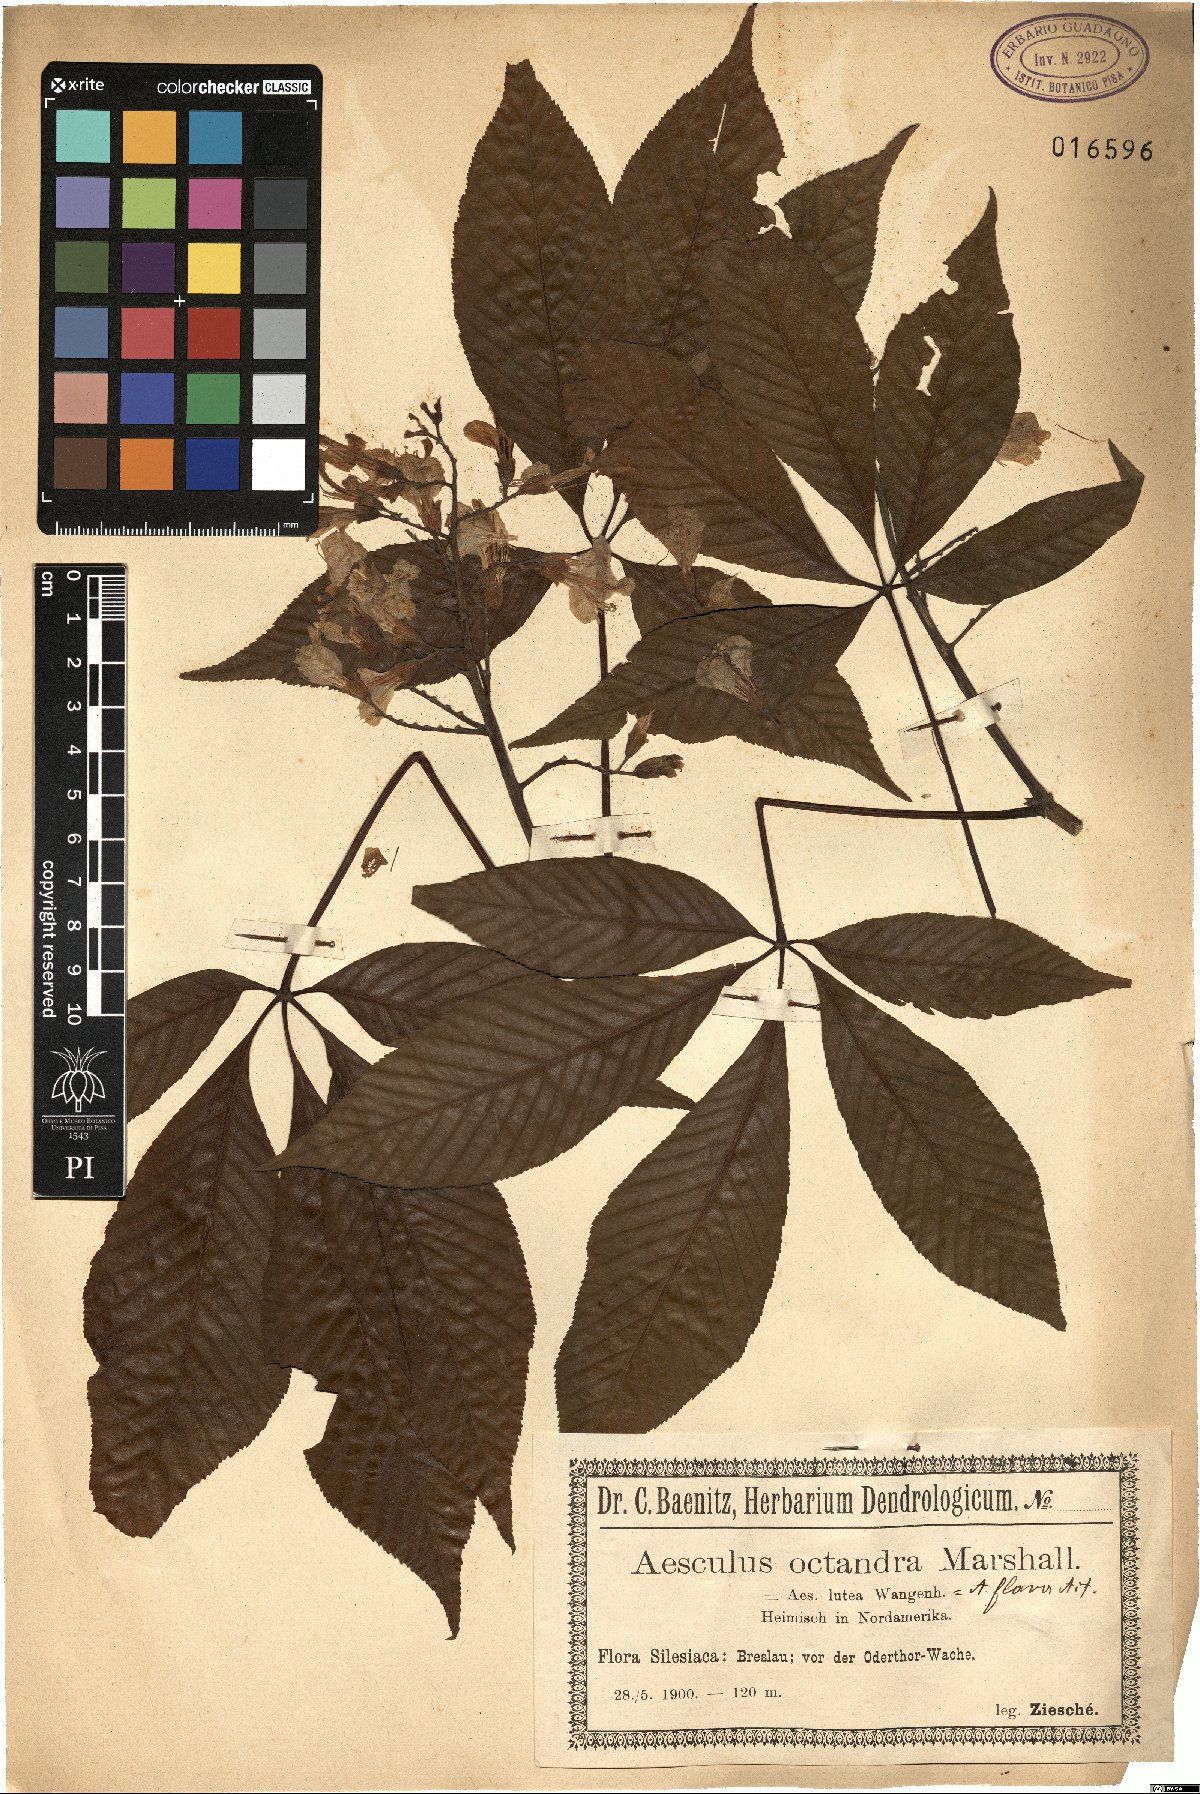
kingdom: Plantae
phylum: Tracheophyta
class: Magnoliopsida
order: Sapindales
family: Sapindaceae
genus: Aesculus
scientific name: Aesculus flava
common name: Yellow buckeye
